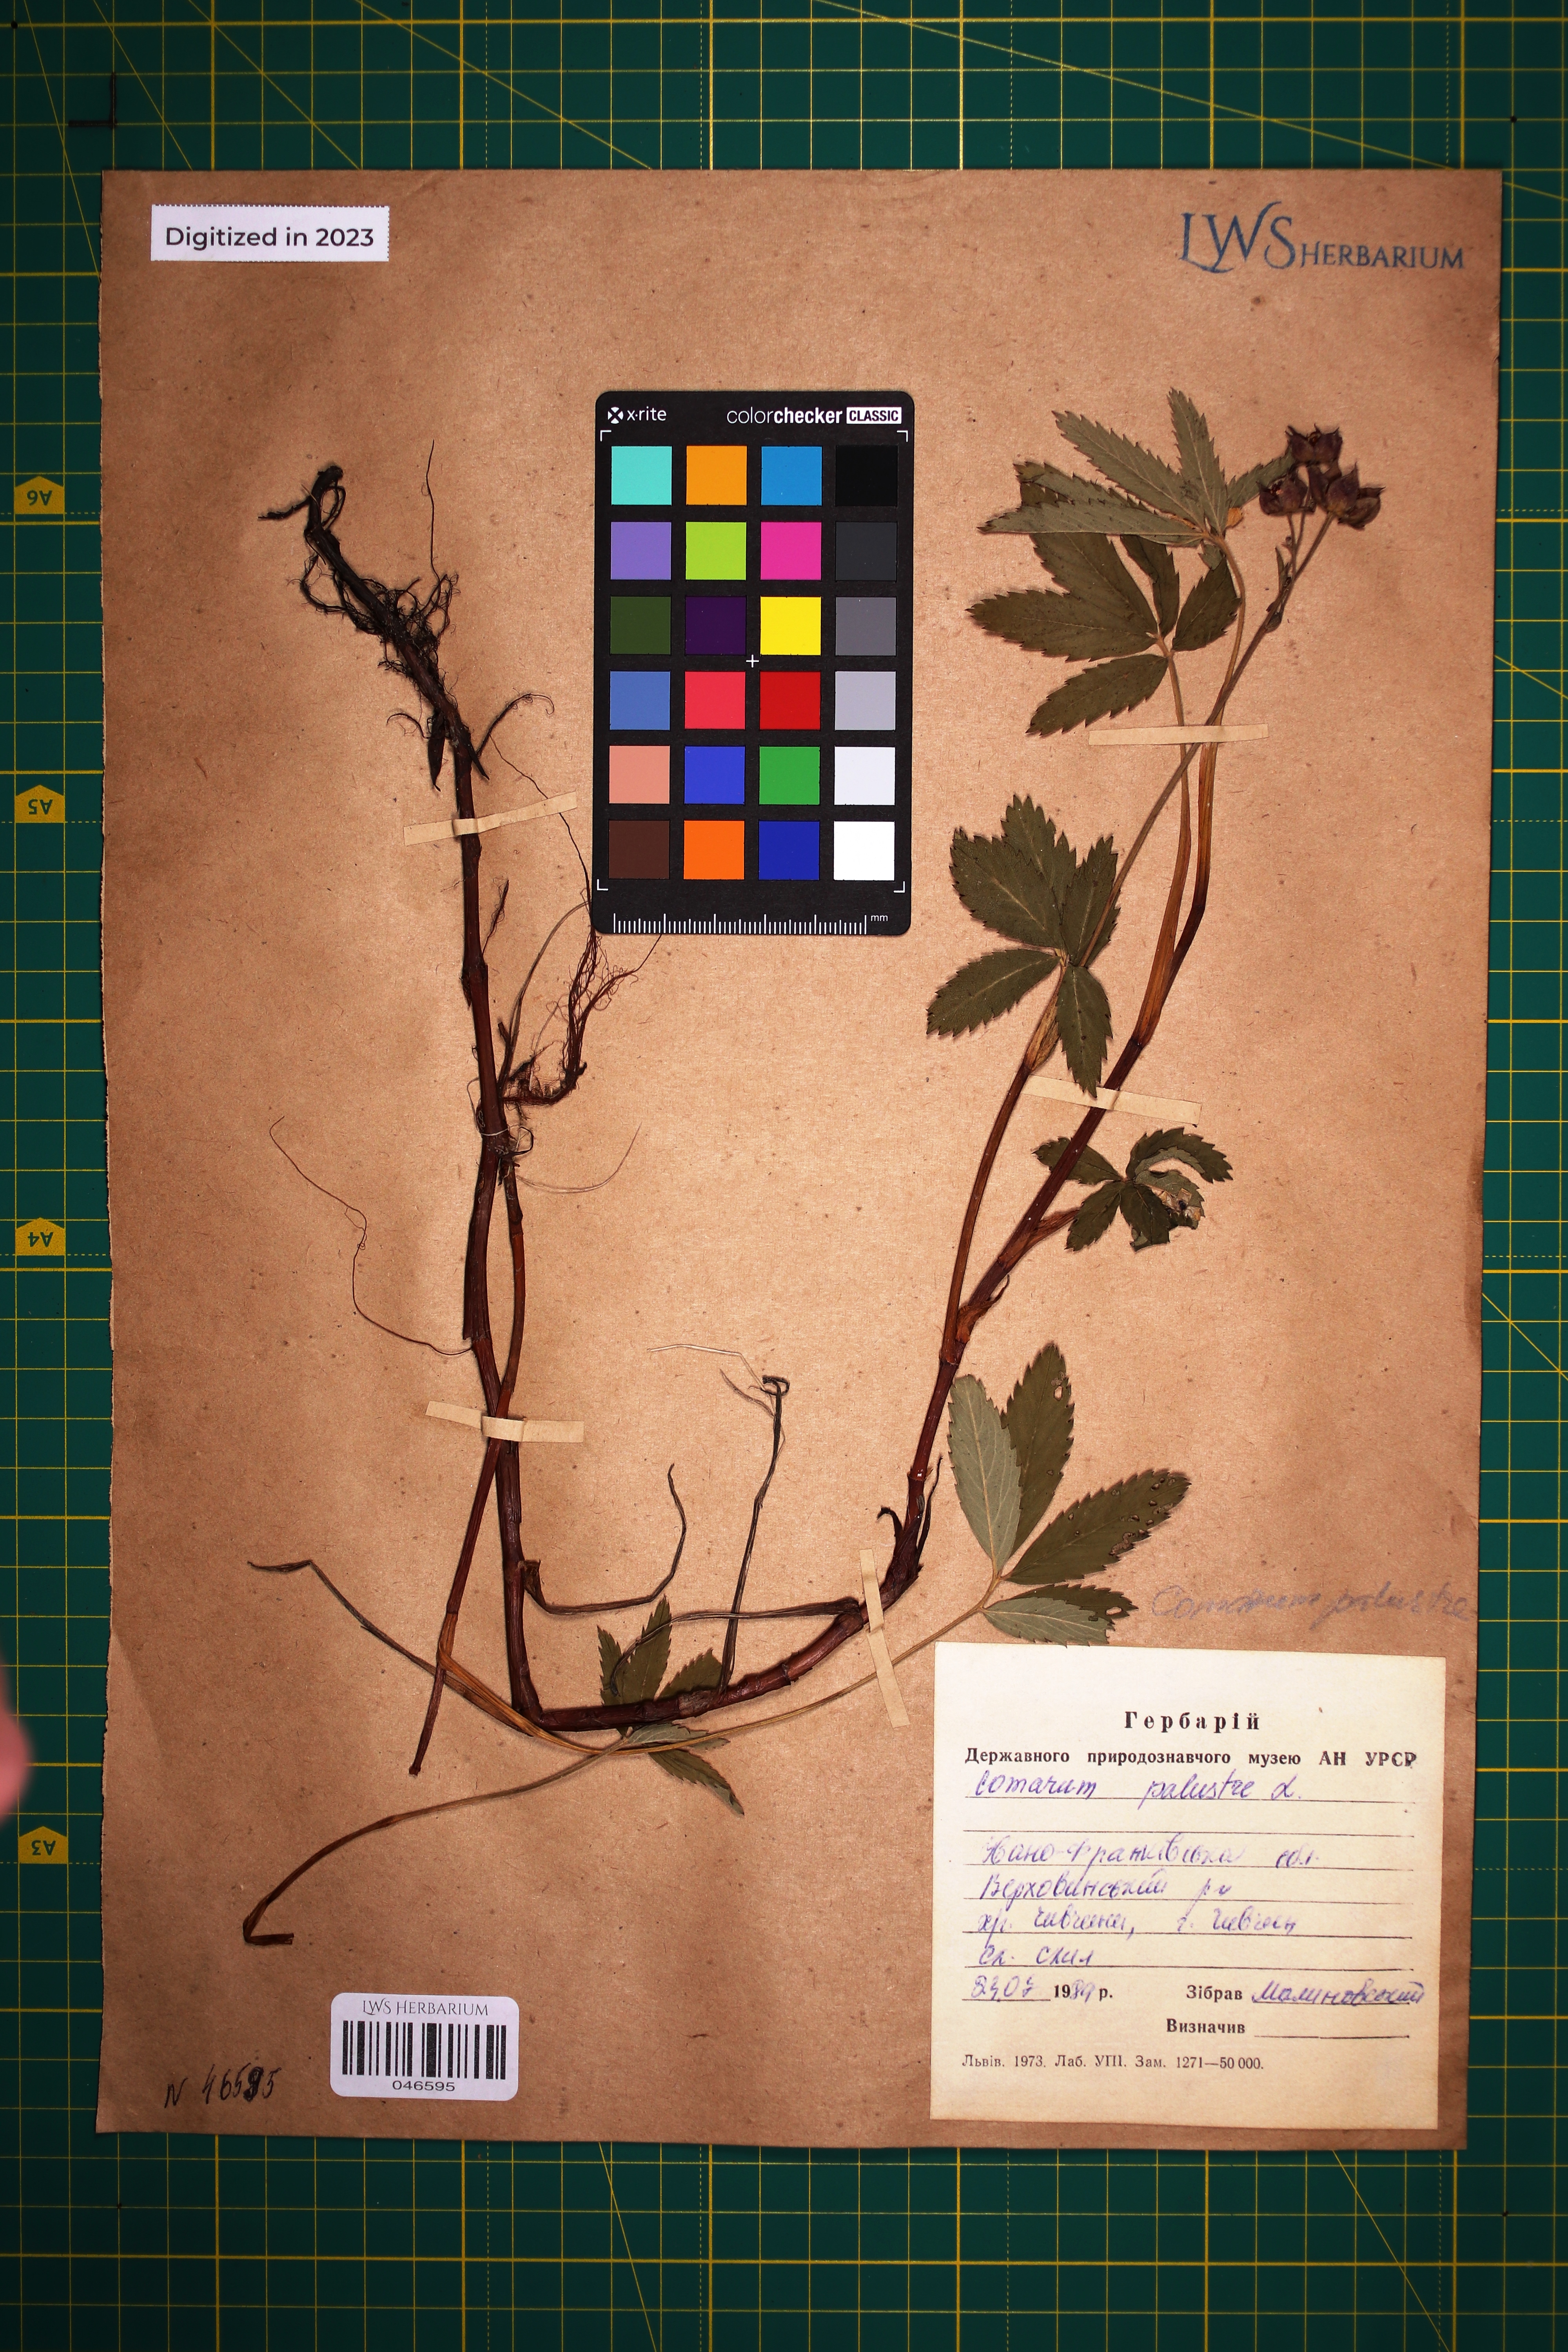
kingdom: Plantae
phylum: Tracheophyta
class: Magnoliopsida
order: Rosales
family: Rosaceae
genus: Comarum
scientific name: Comarum palustre
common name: Marsh cinquefoil
